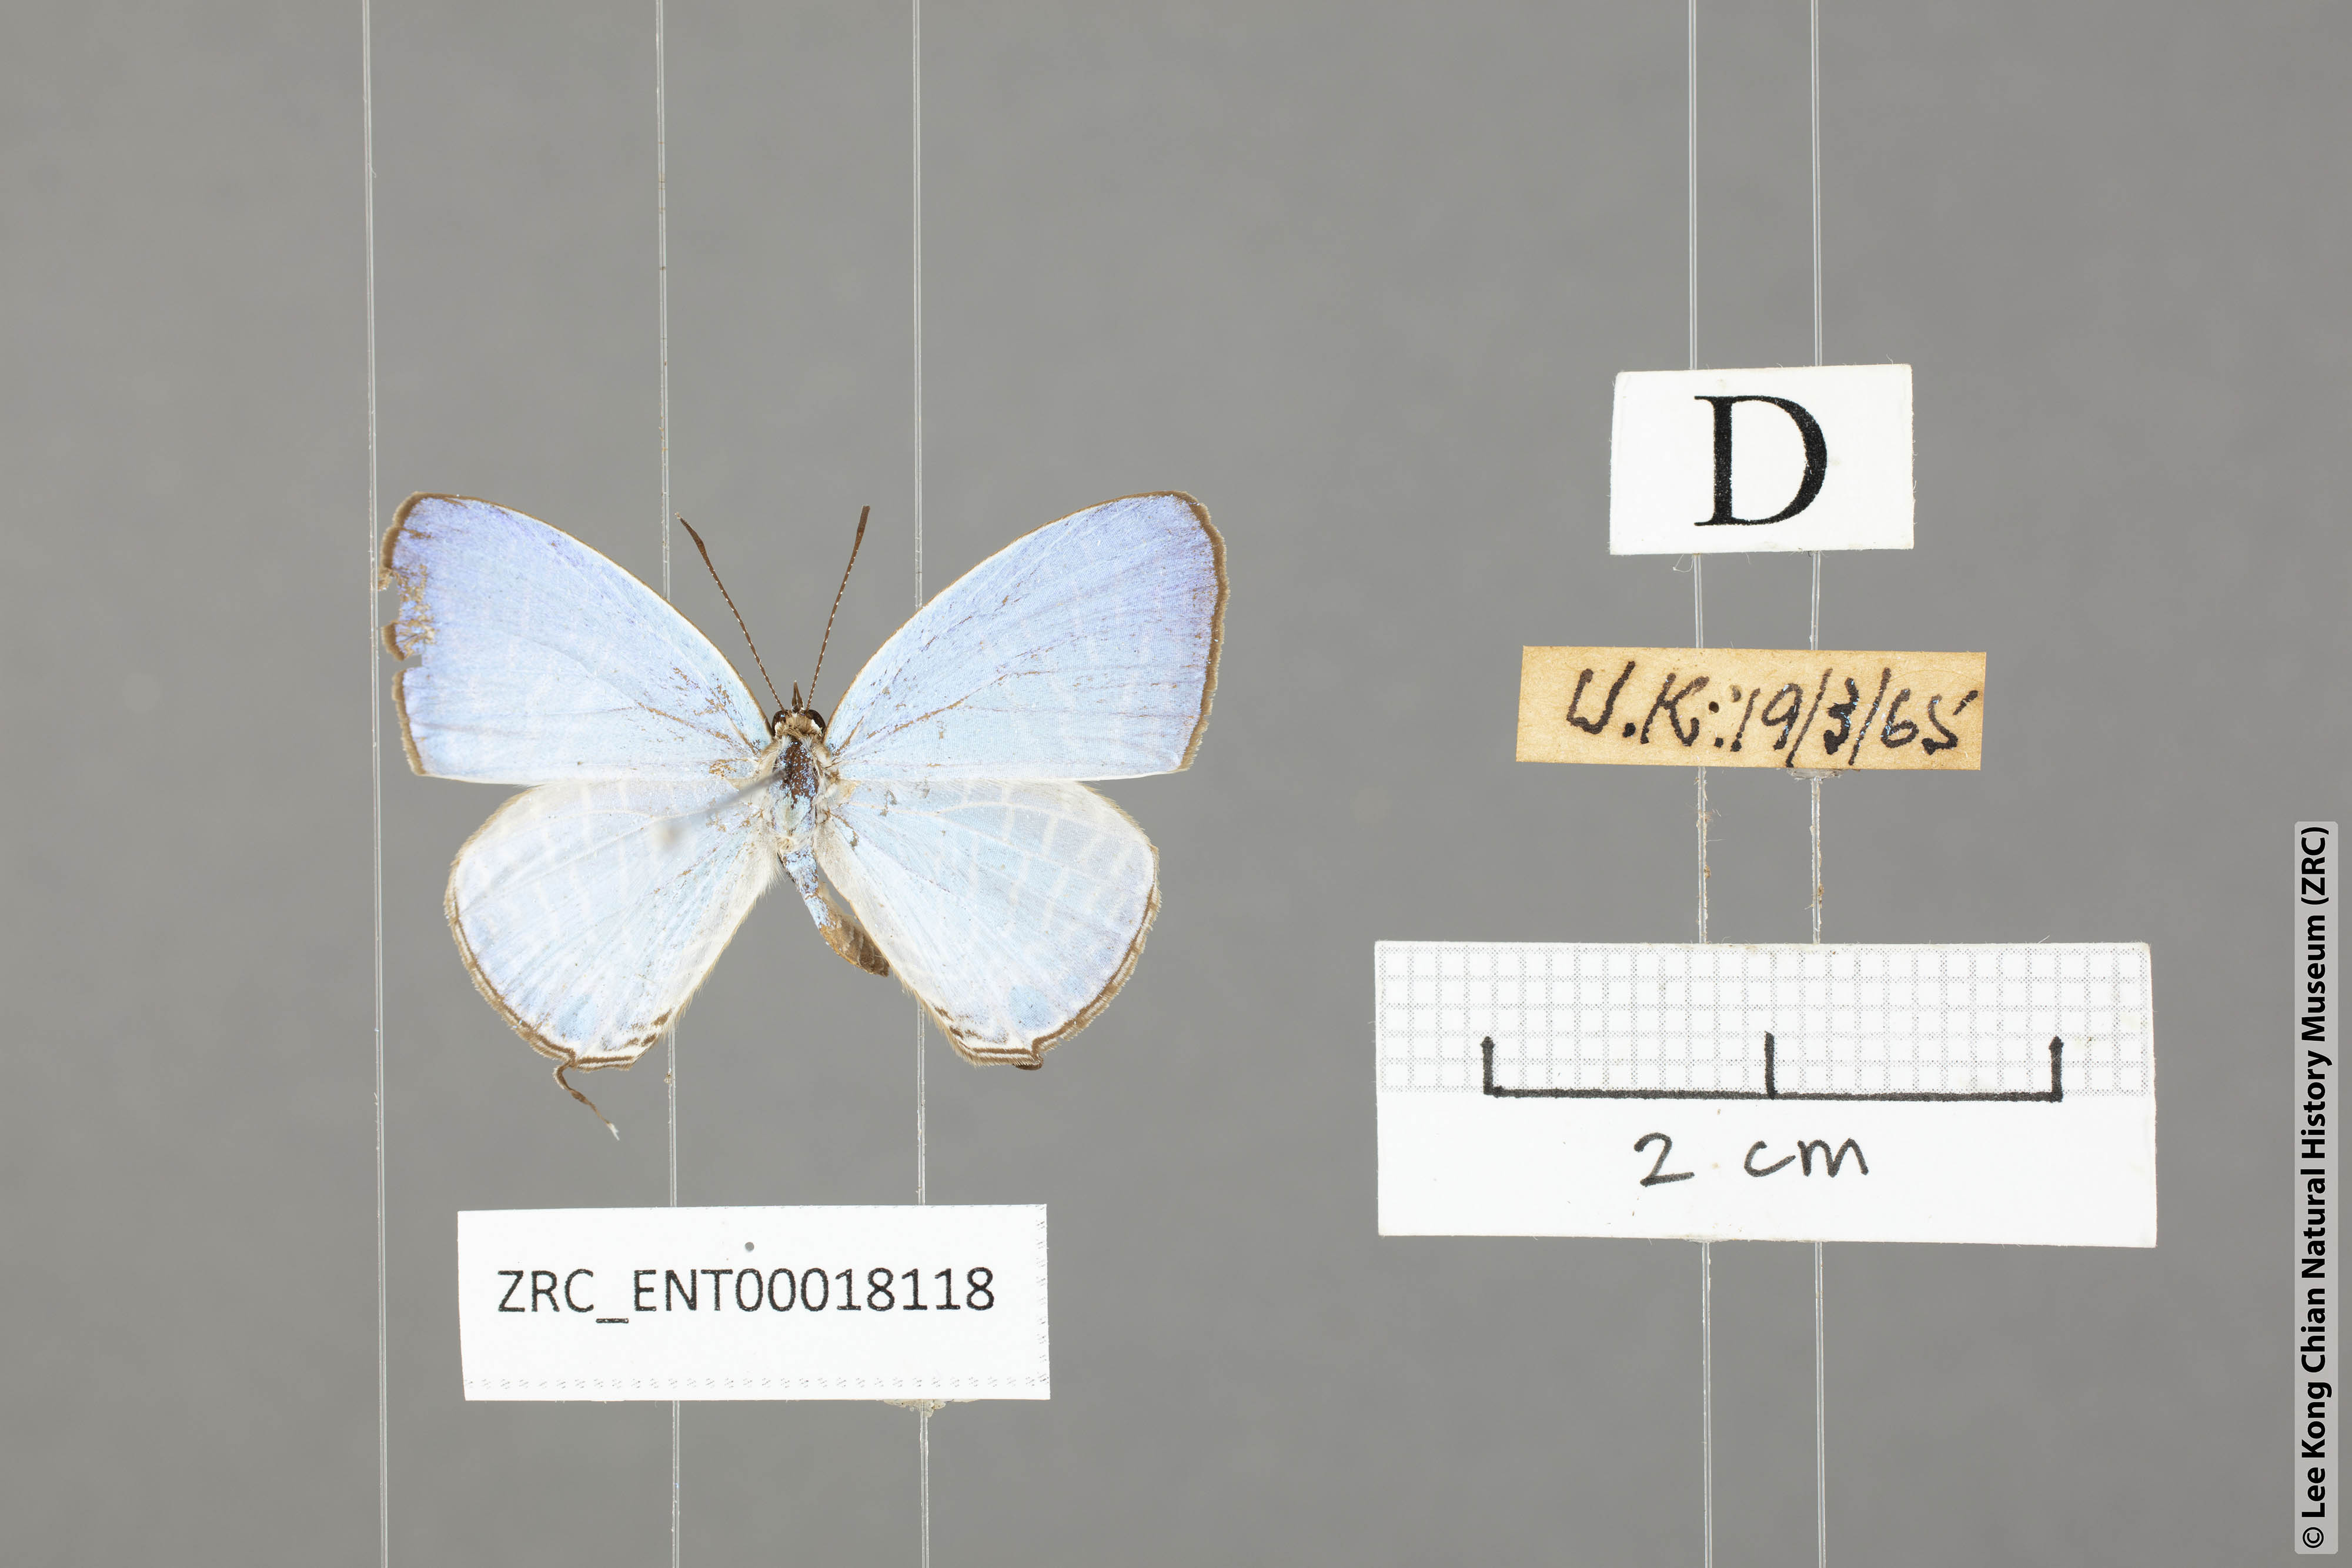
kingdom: Animalia
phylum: Arthropoda
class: Insecta
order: Lepidoptera
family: Lycaenidae
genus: Jamides
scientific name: Jamides elpis
